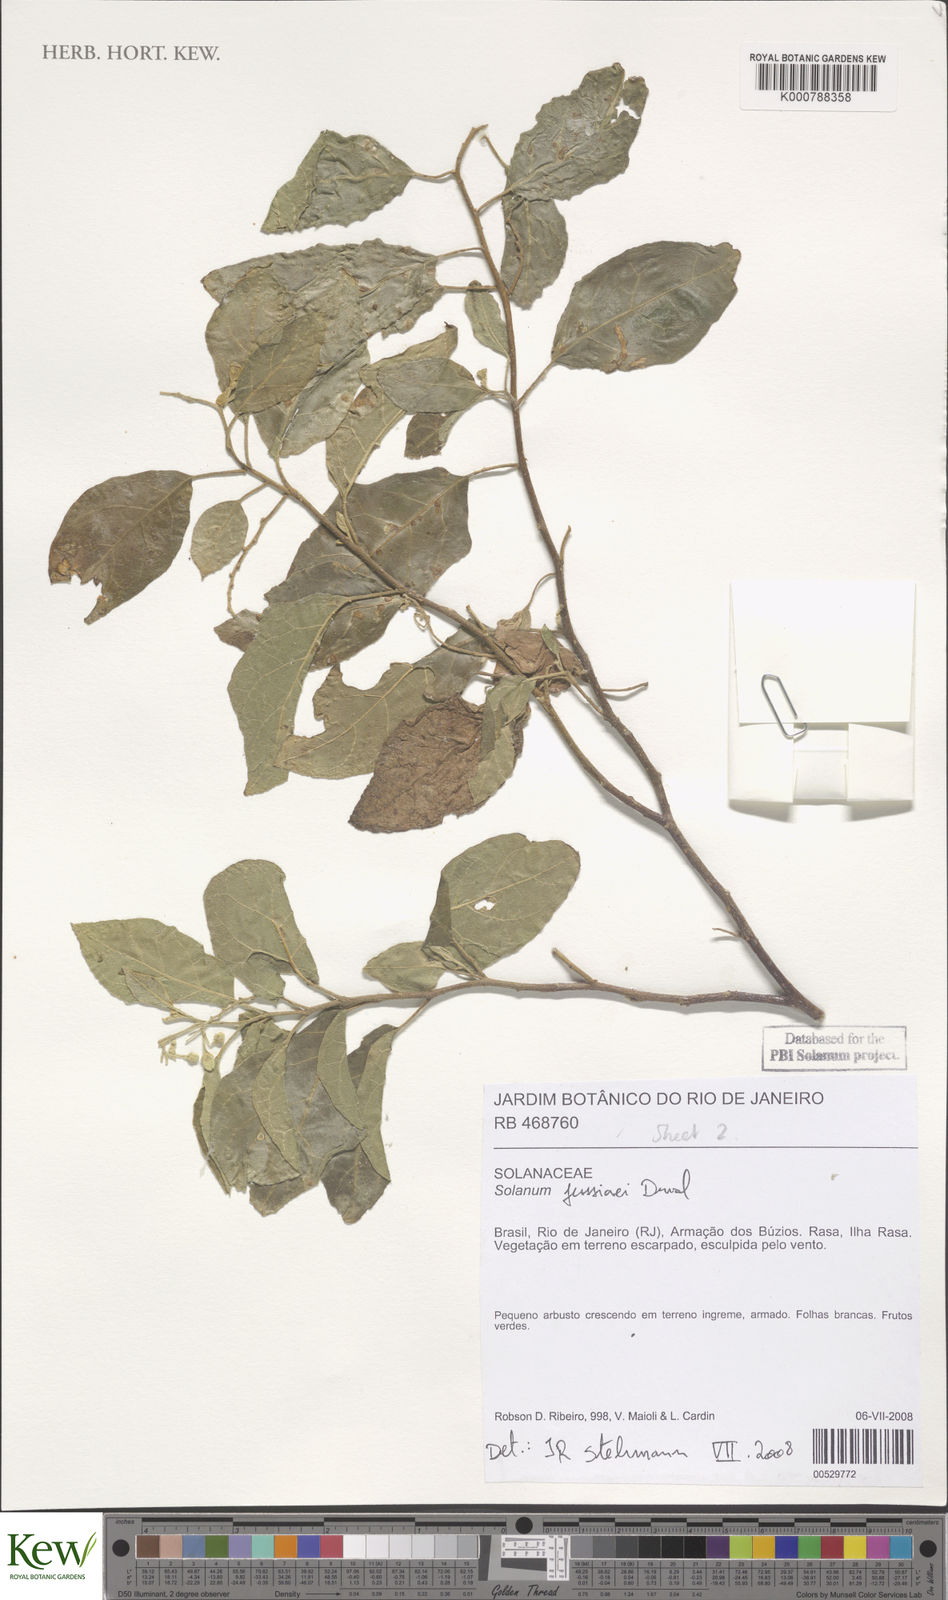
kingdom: Plantae
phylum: Tracheophyta
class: Magnoliopsida
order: Solanales
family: Solanaceae
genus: Solanum
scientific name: Solanum jussiaei
